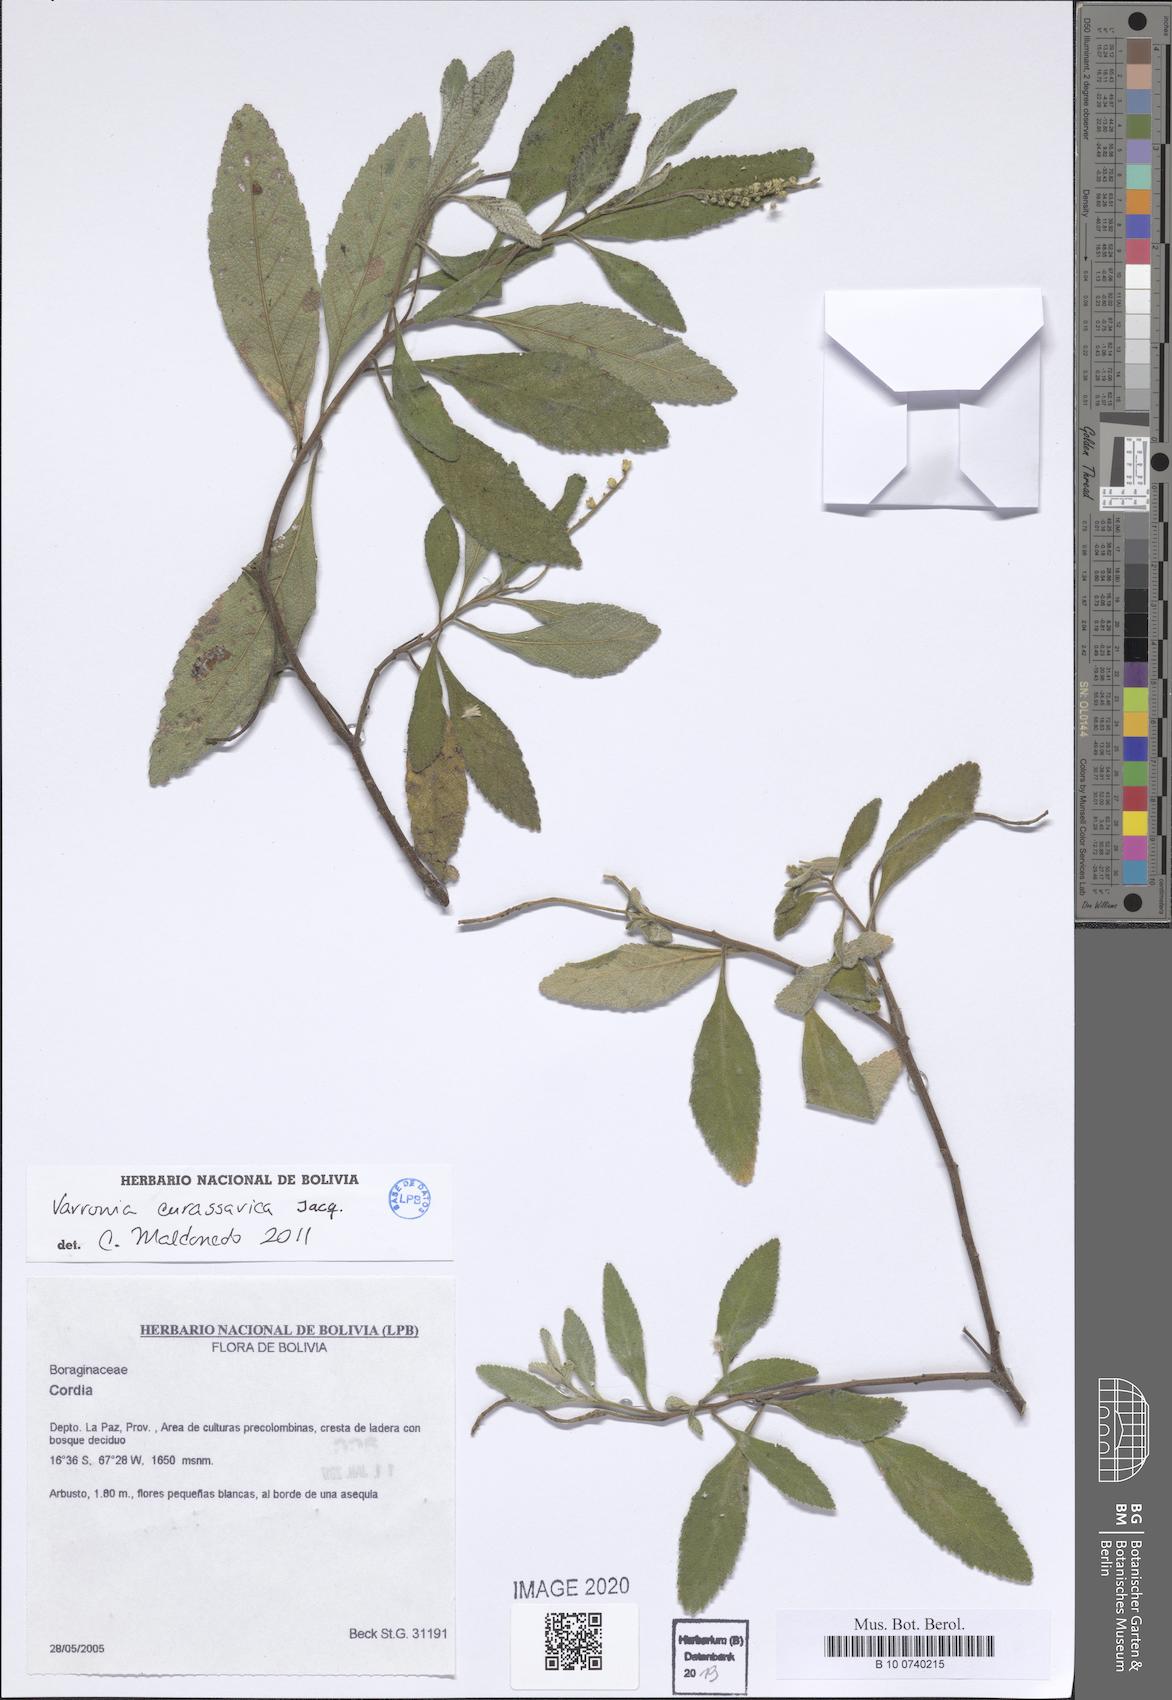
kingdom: Plantae
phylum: Tracheophyta
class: Magnoliopsida
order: Boraginales
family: Cordiaceae
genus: Varronia
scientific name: Varronia curassavica
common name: Black sage
